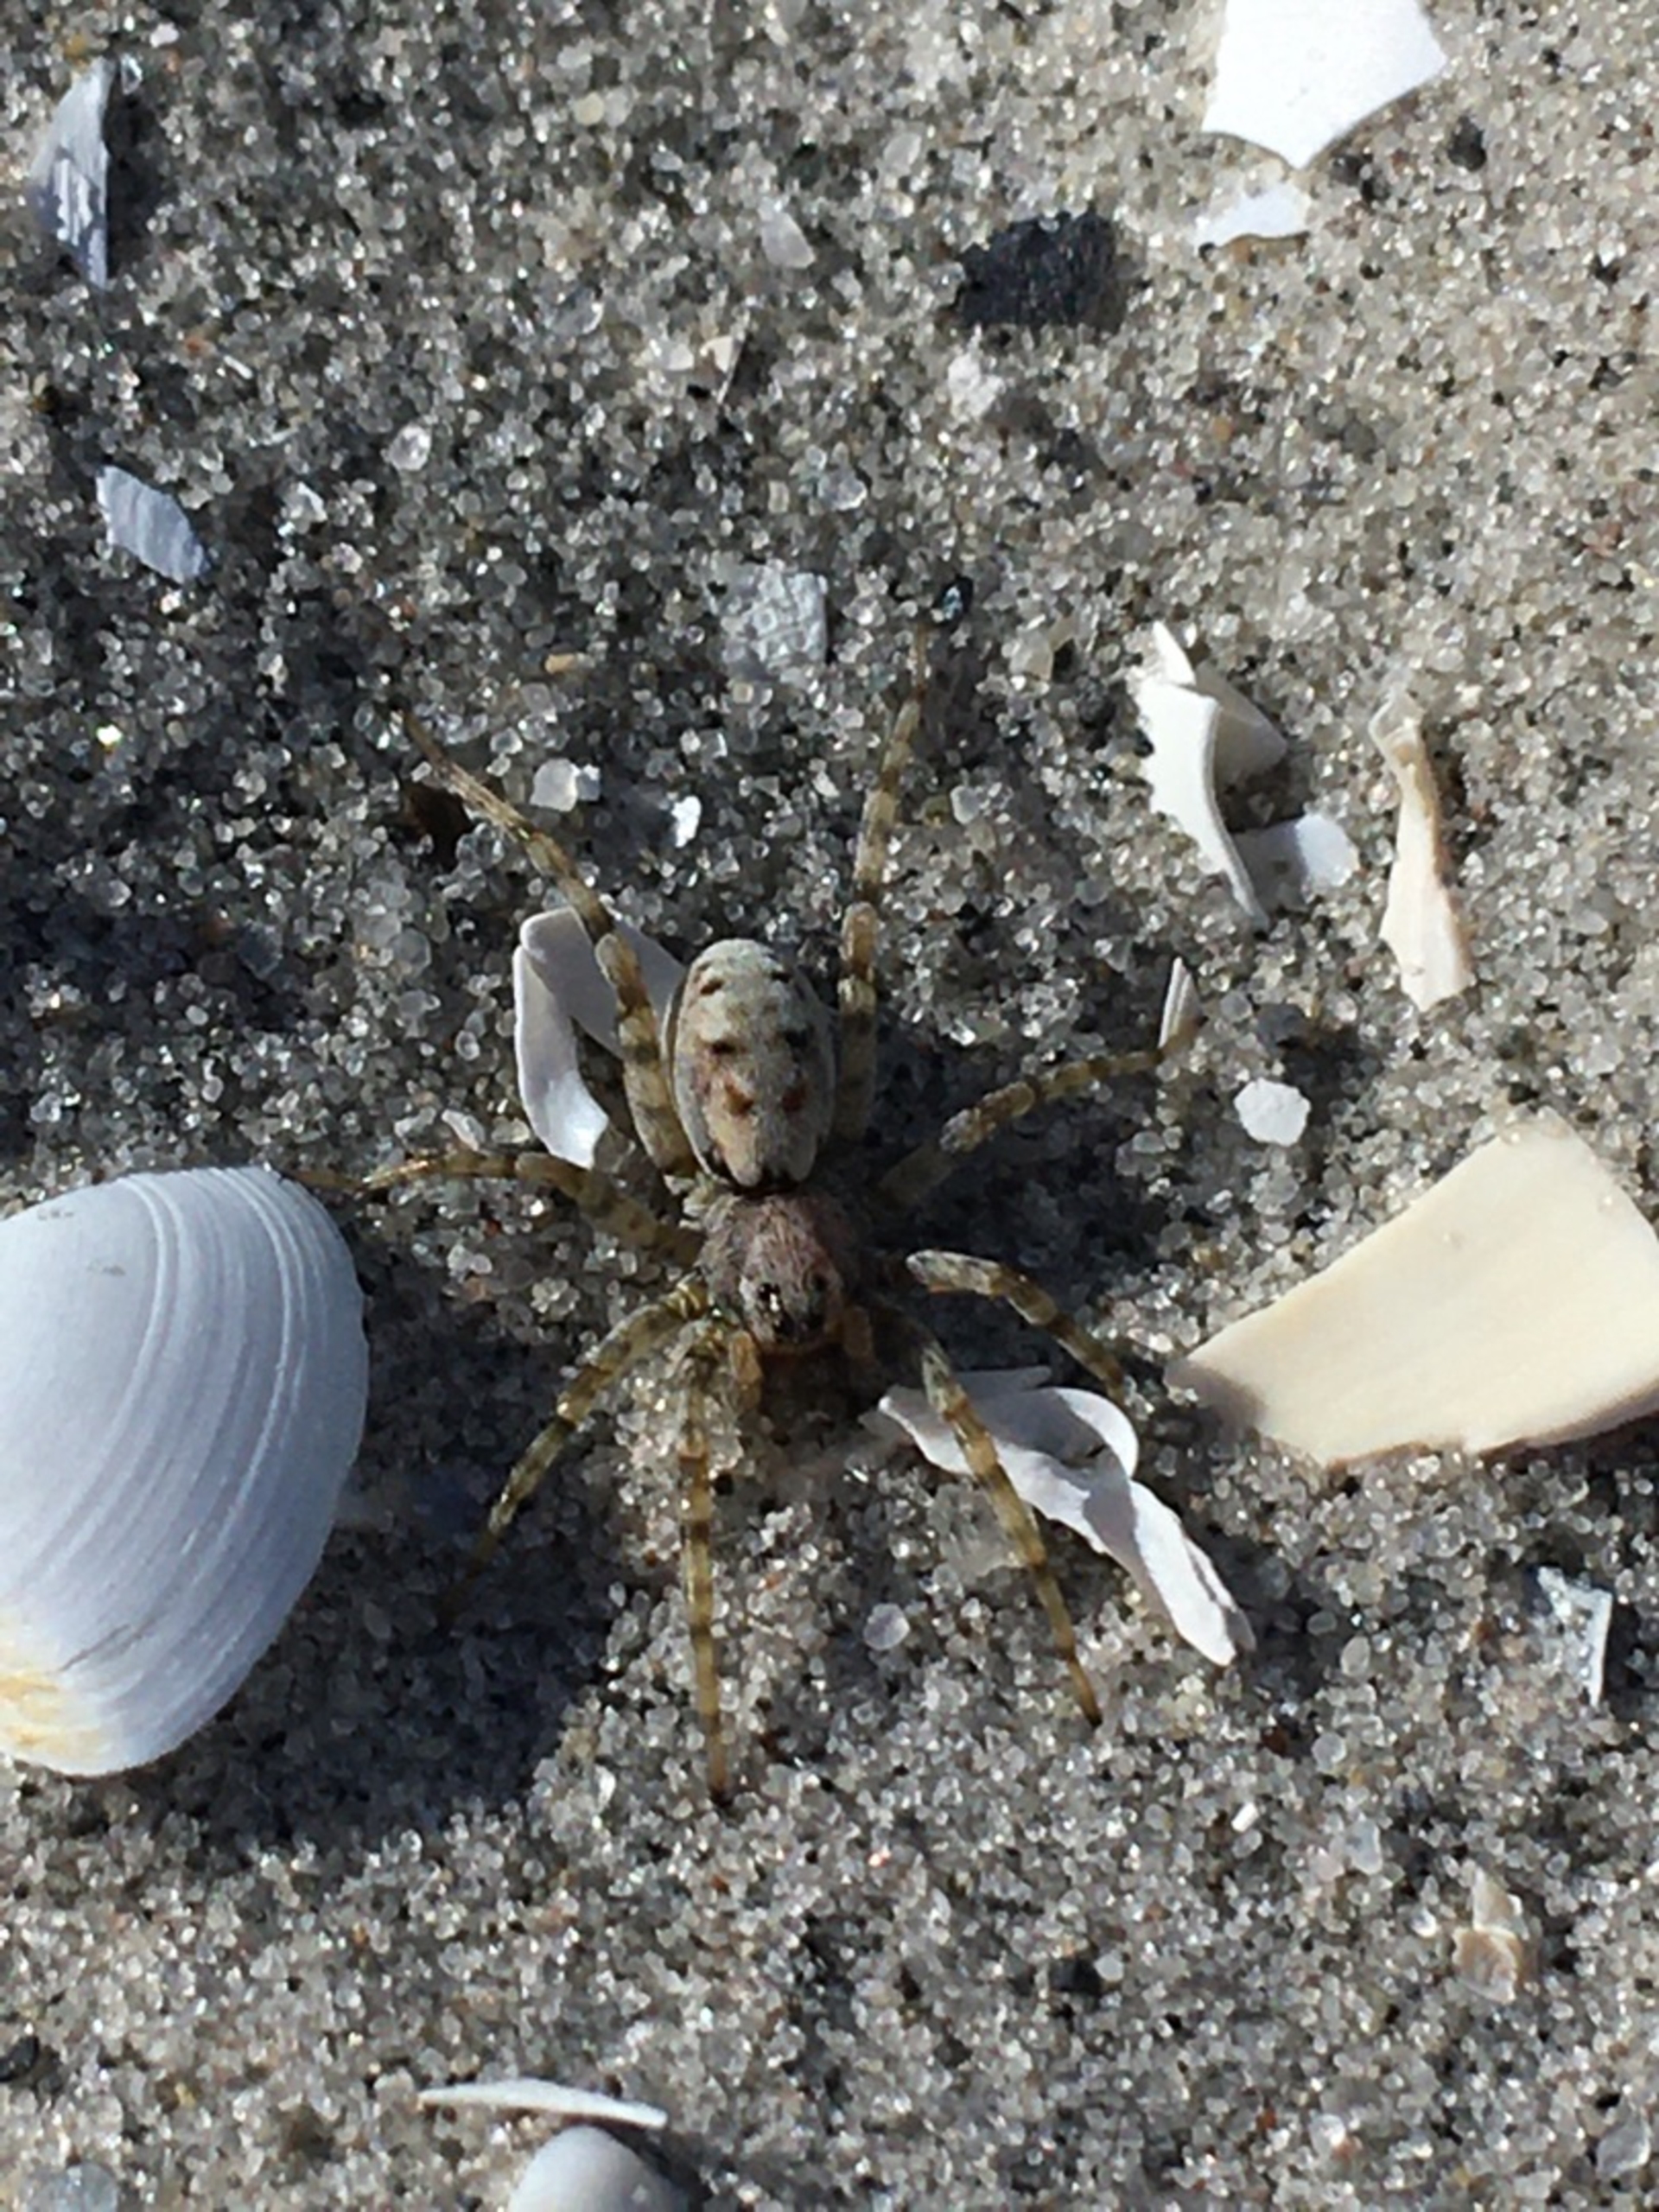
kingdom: Animalia
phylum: Arthropoda
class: Arachnida
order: Araneae
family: Lycosidae
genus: Arctosa
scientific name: Arctosa perita
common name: Klitgraveedderkop
